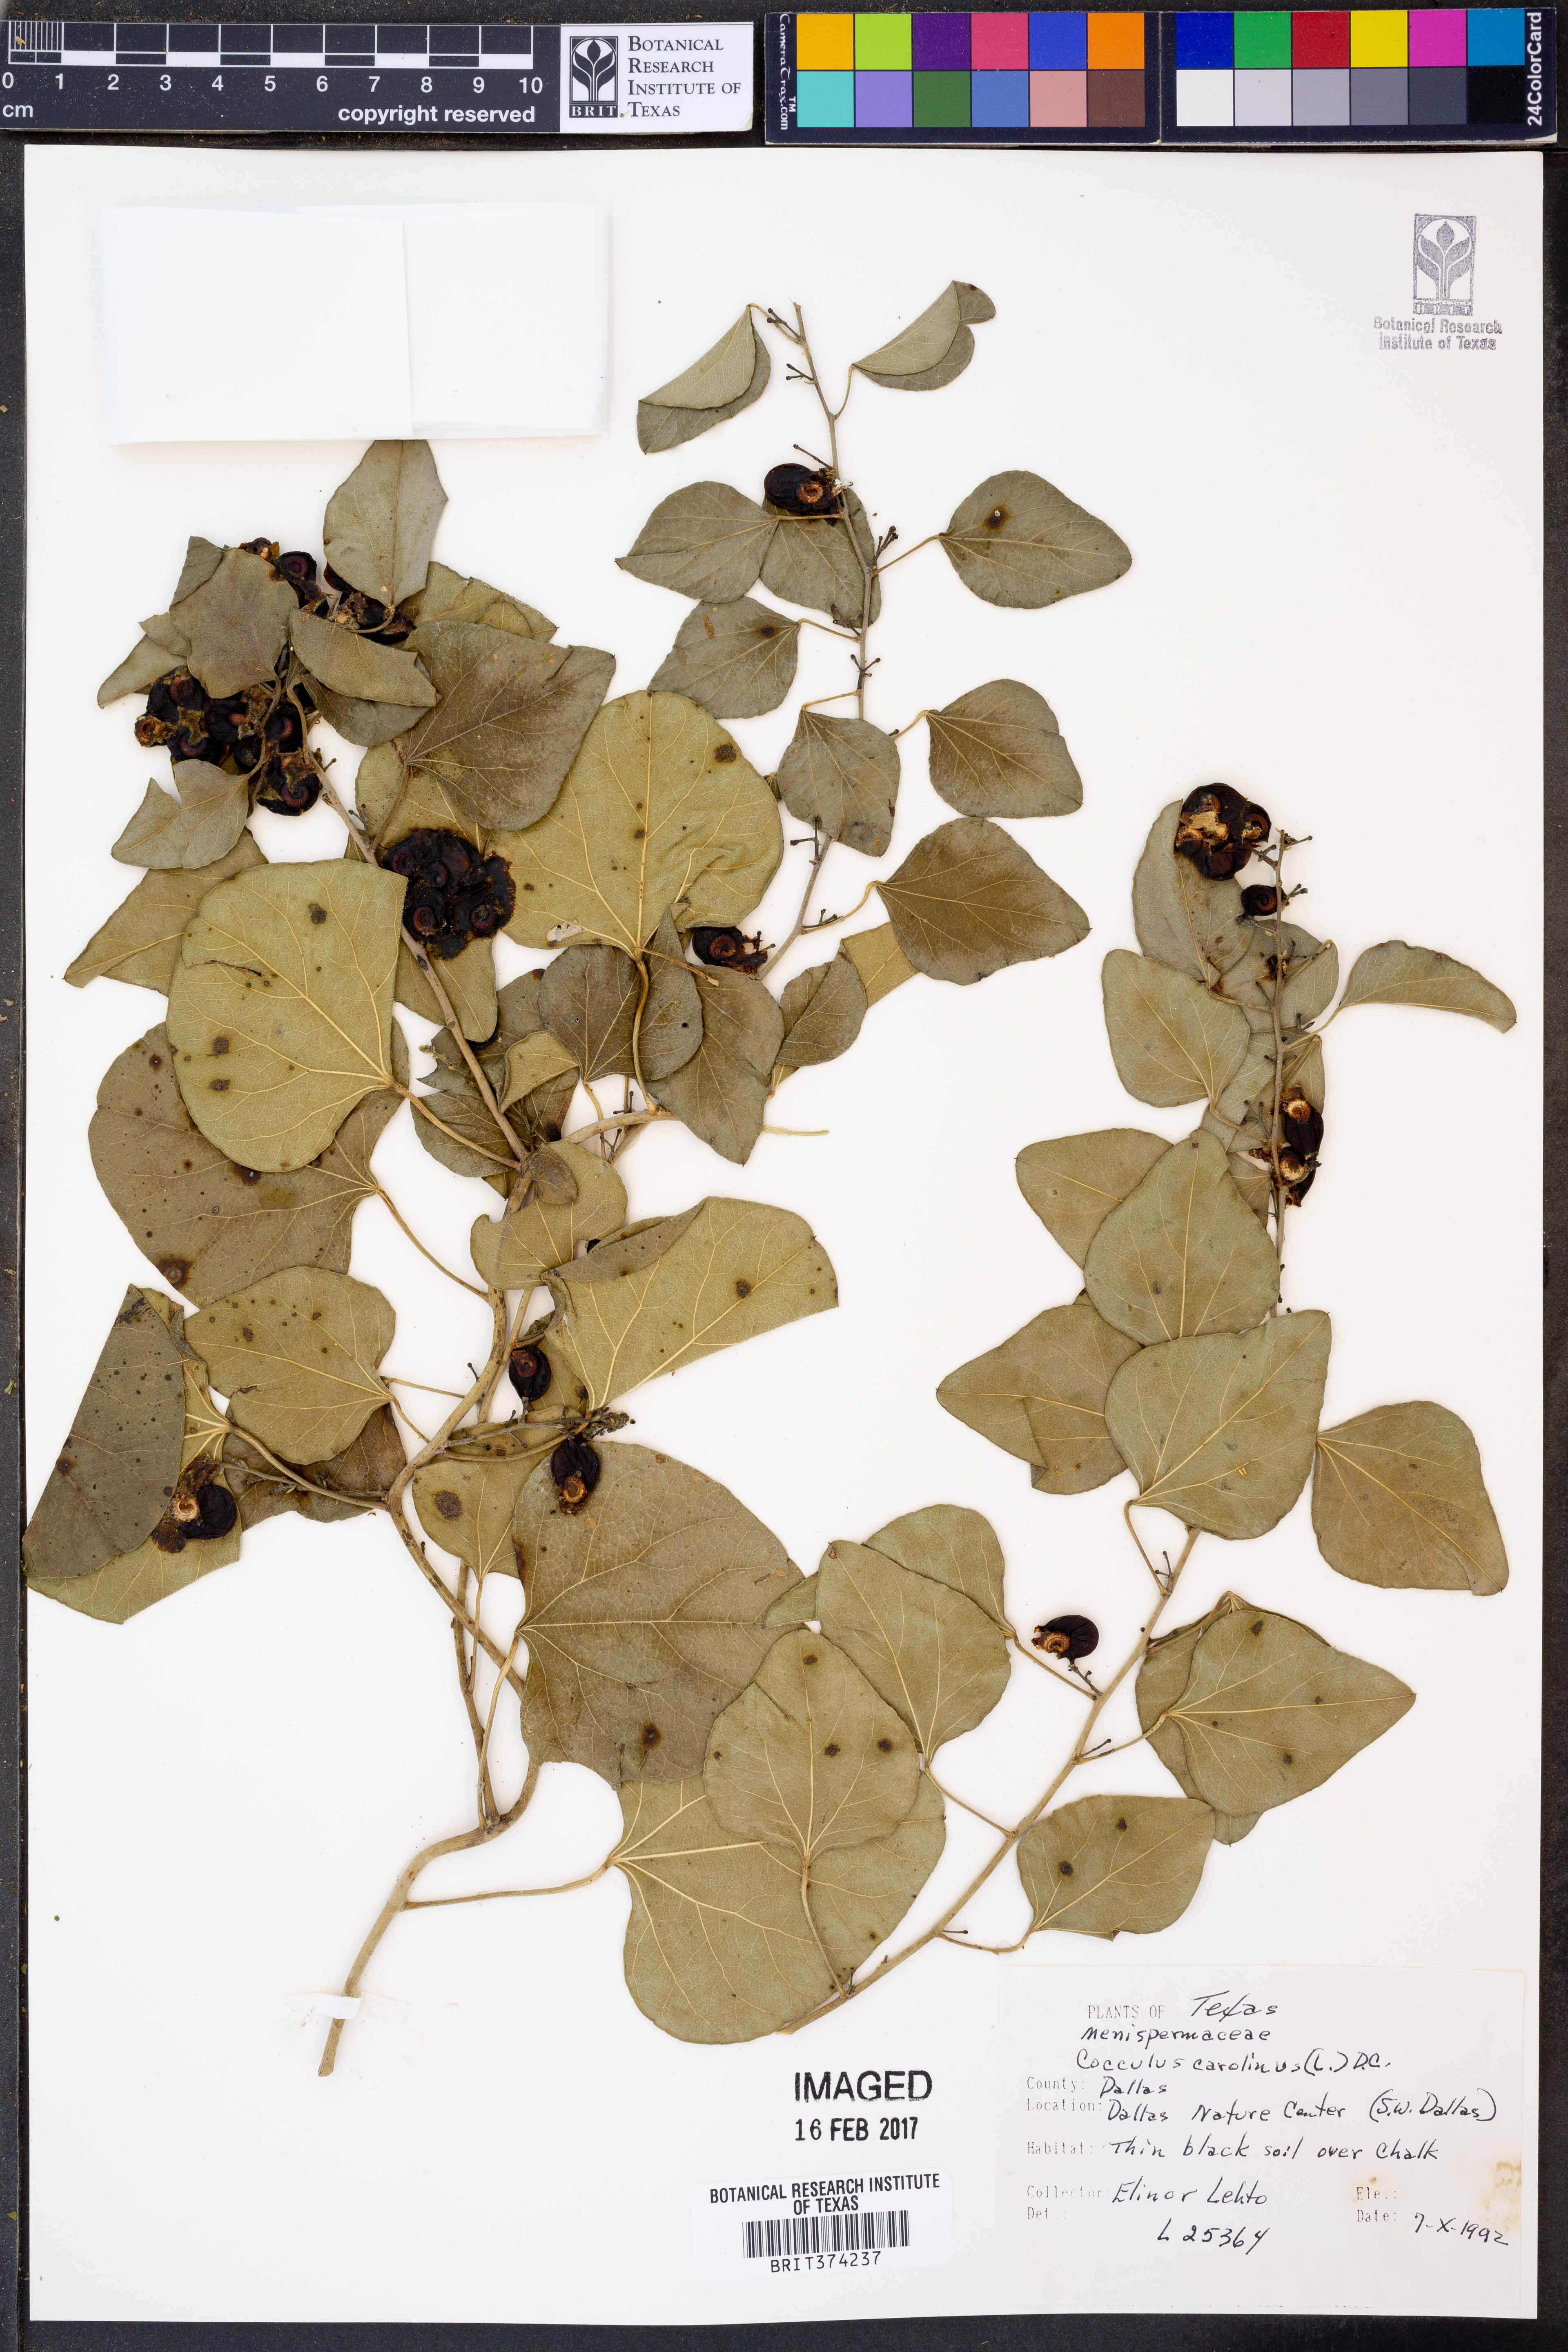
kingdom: Plantae
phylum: Tracheophyta
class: Magnoliopsida
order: Ranunculales
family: Menispermaceae
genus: Cocculus
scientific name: Cocculus carolinus
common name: Carolina moonseed
